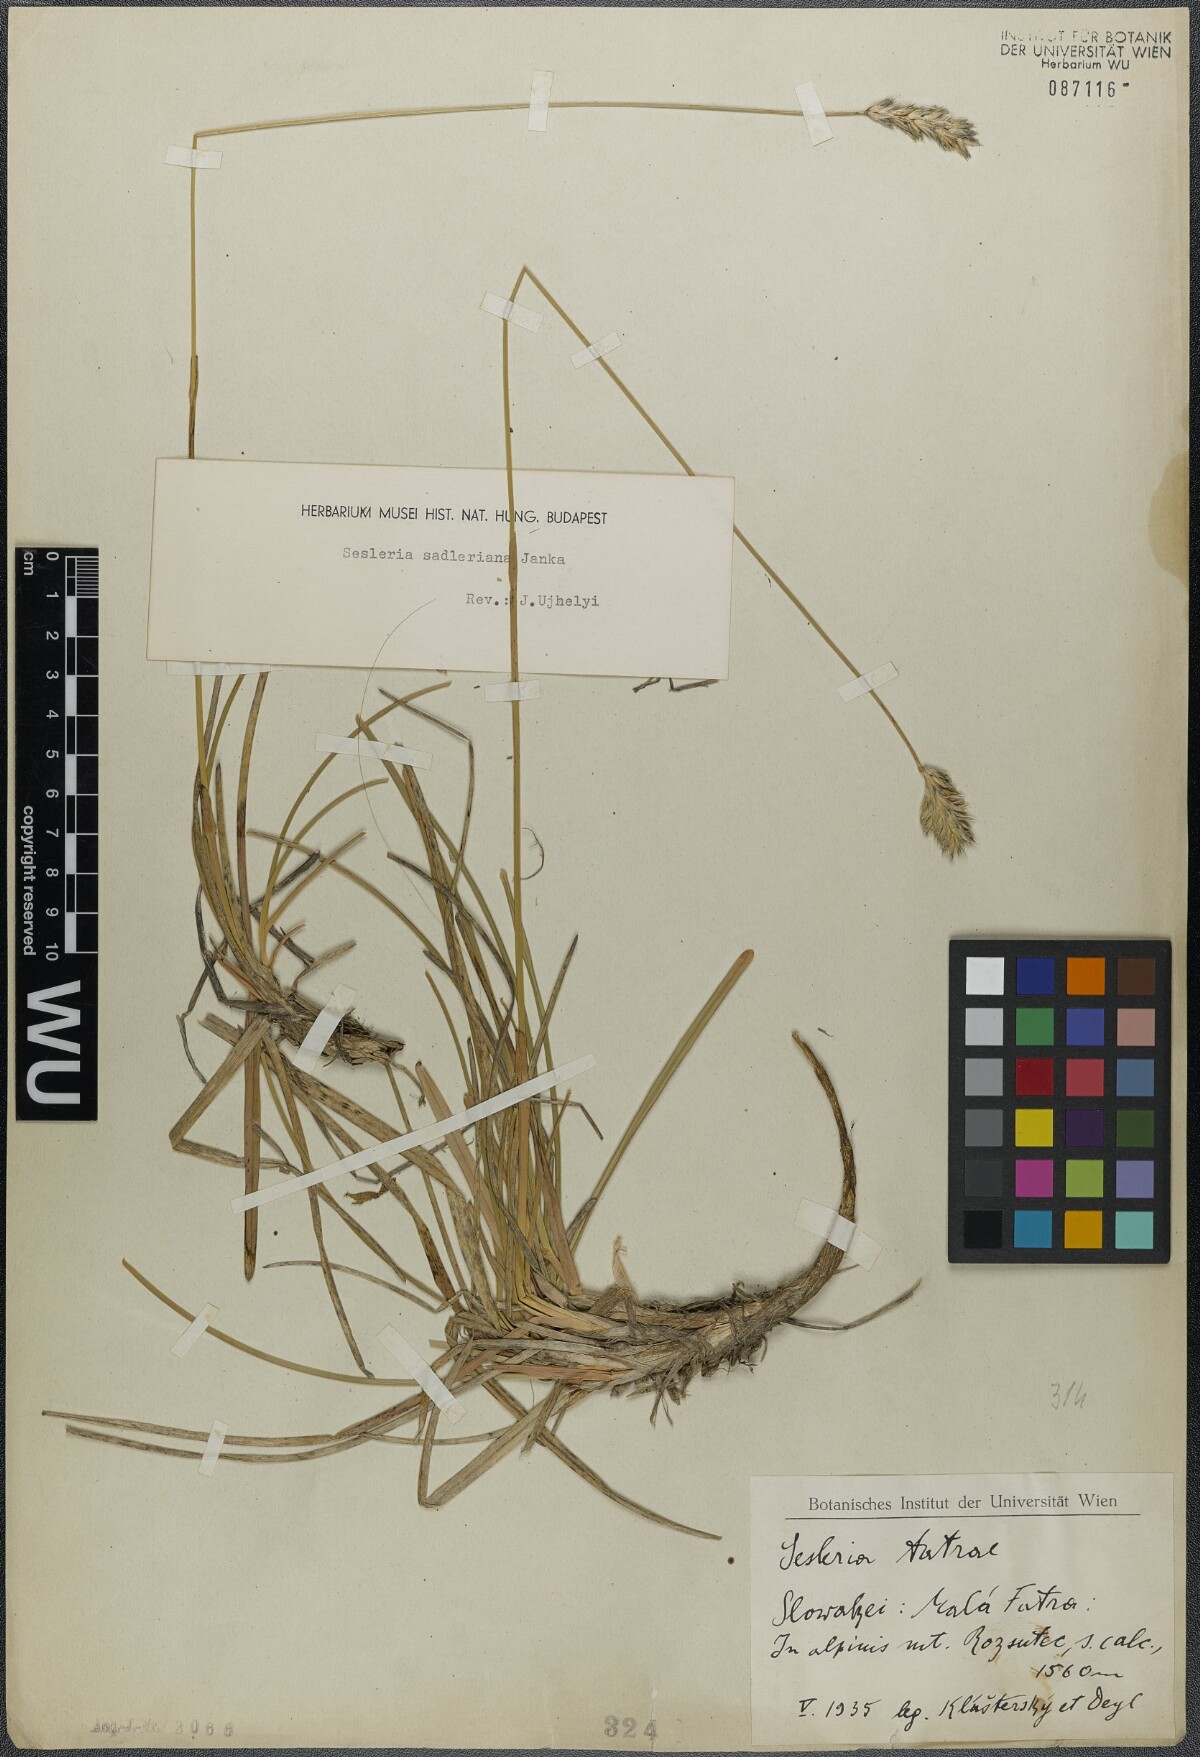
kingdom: Plantae
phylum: Tracheophyta
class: Liliopsida
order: Poales
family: Poaceae
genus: Sesleria
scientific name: Sesleria sadleriana
